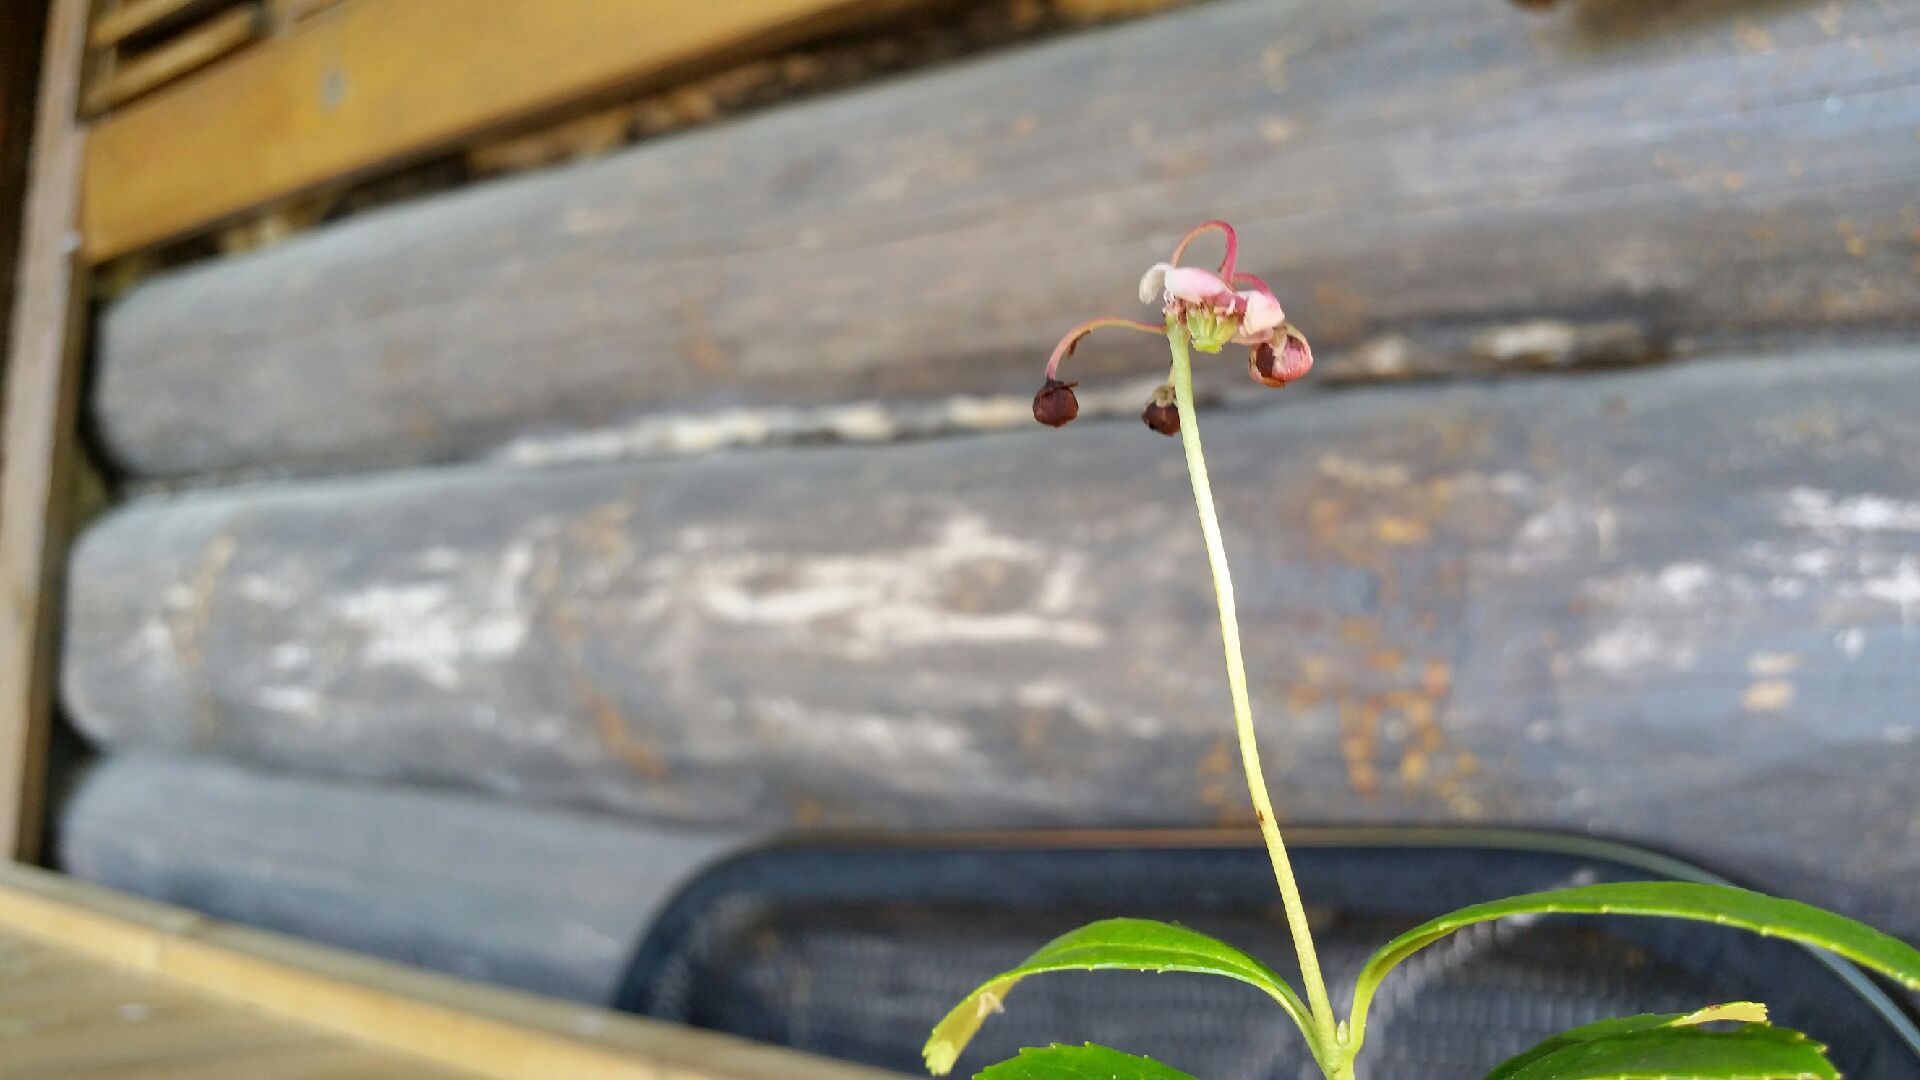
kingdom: Plantae
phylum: Tracheophyta
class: Magnoliopsida
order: Ericales
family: Ericaceae
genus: Chimaphila
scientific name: Chimaphila umbellata
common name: Pipsissewa
